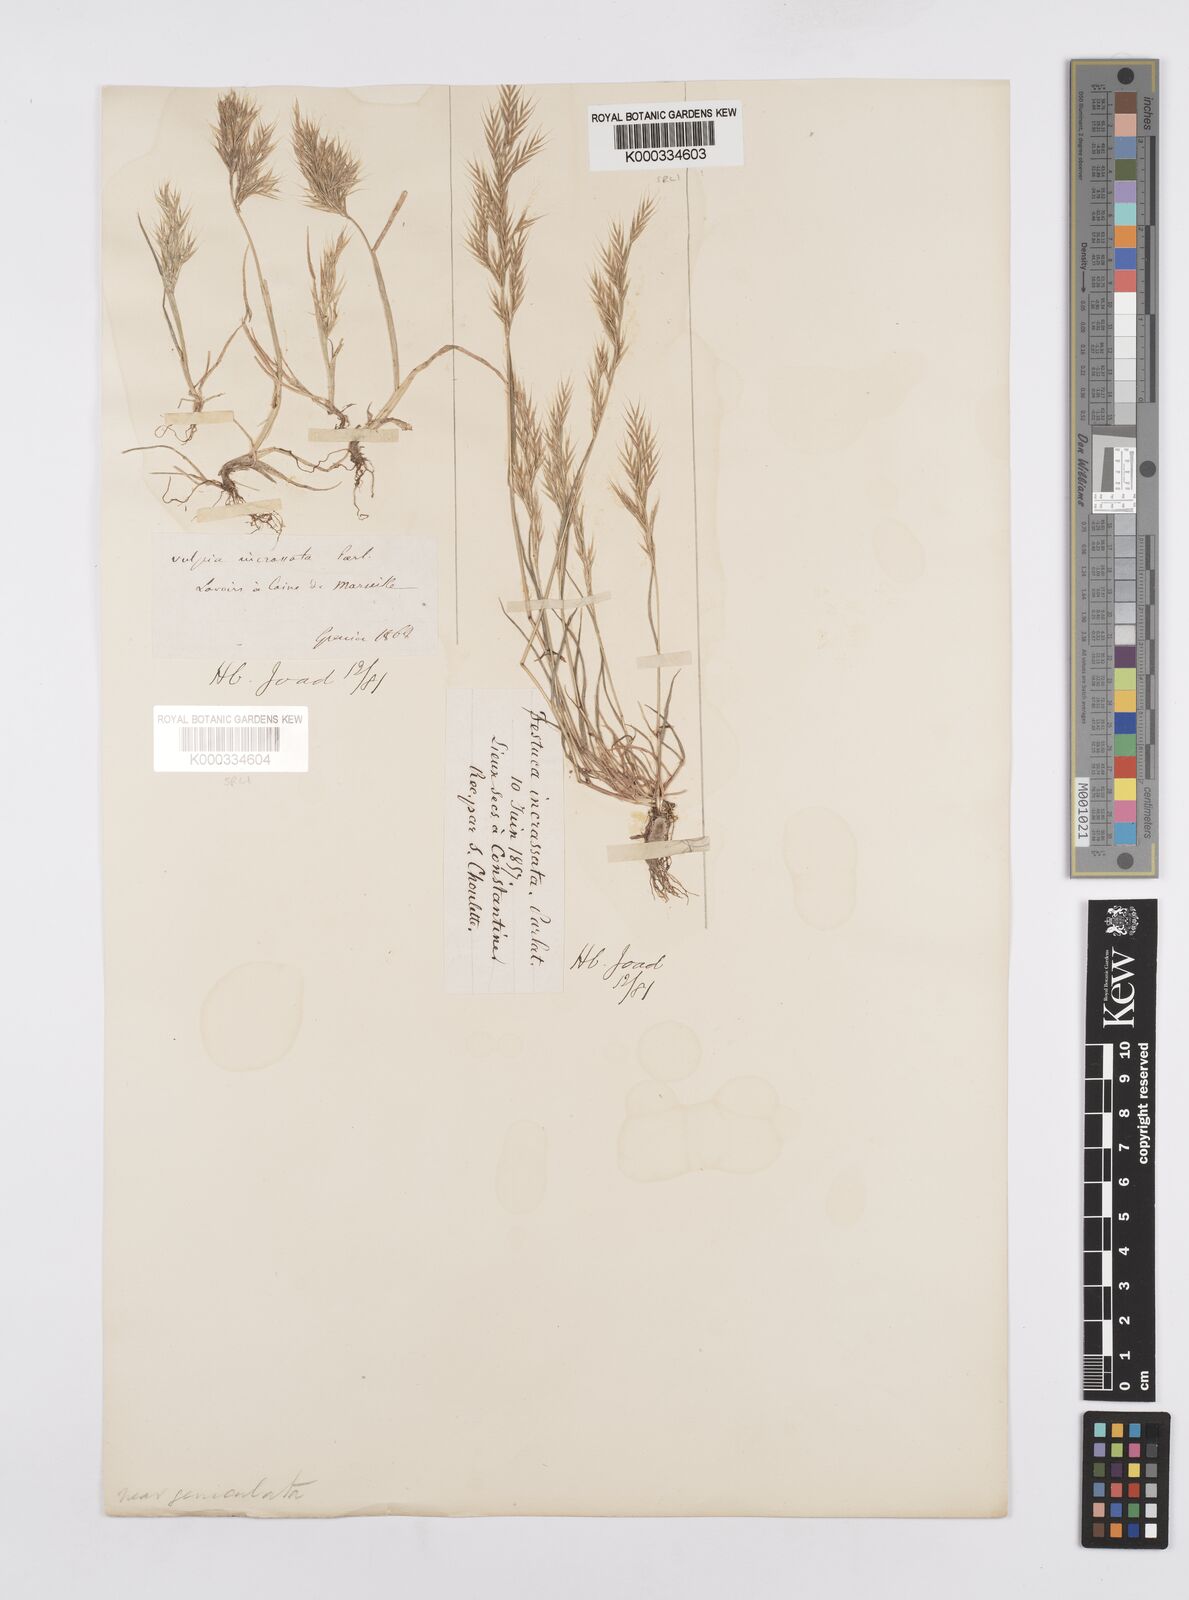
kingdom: Plantae
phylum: Tracheophyta
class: Liliopsida
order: Poales
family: Poaceae
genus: Vulpiella
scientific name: Vulpiella stipoides
